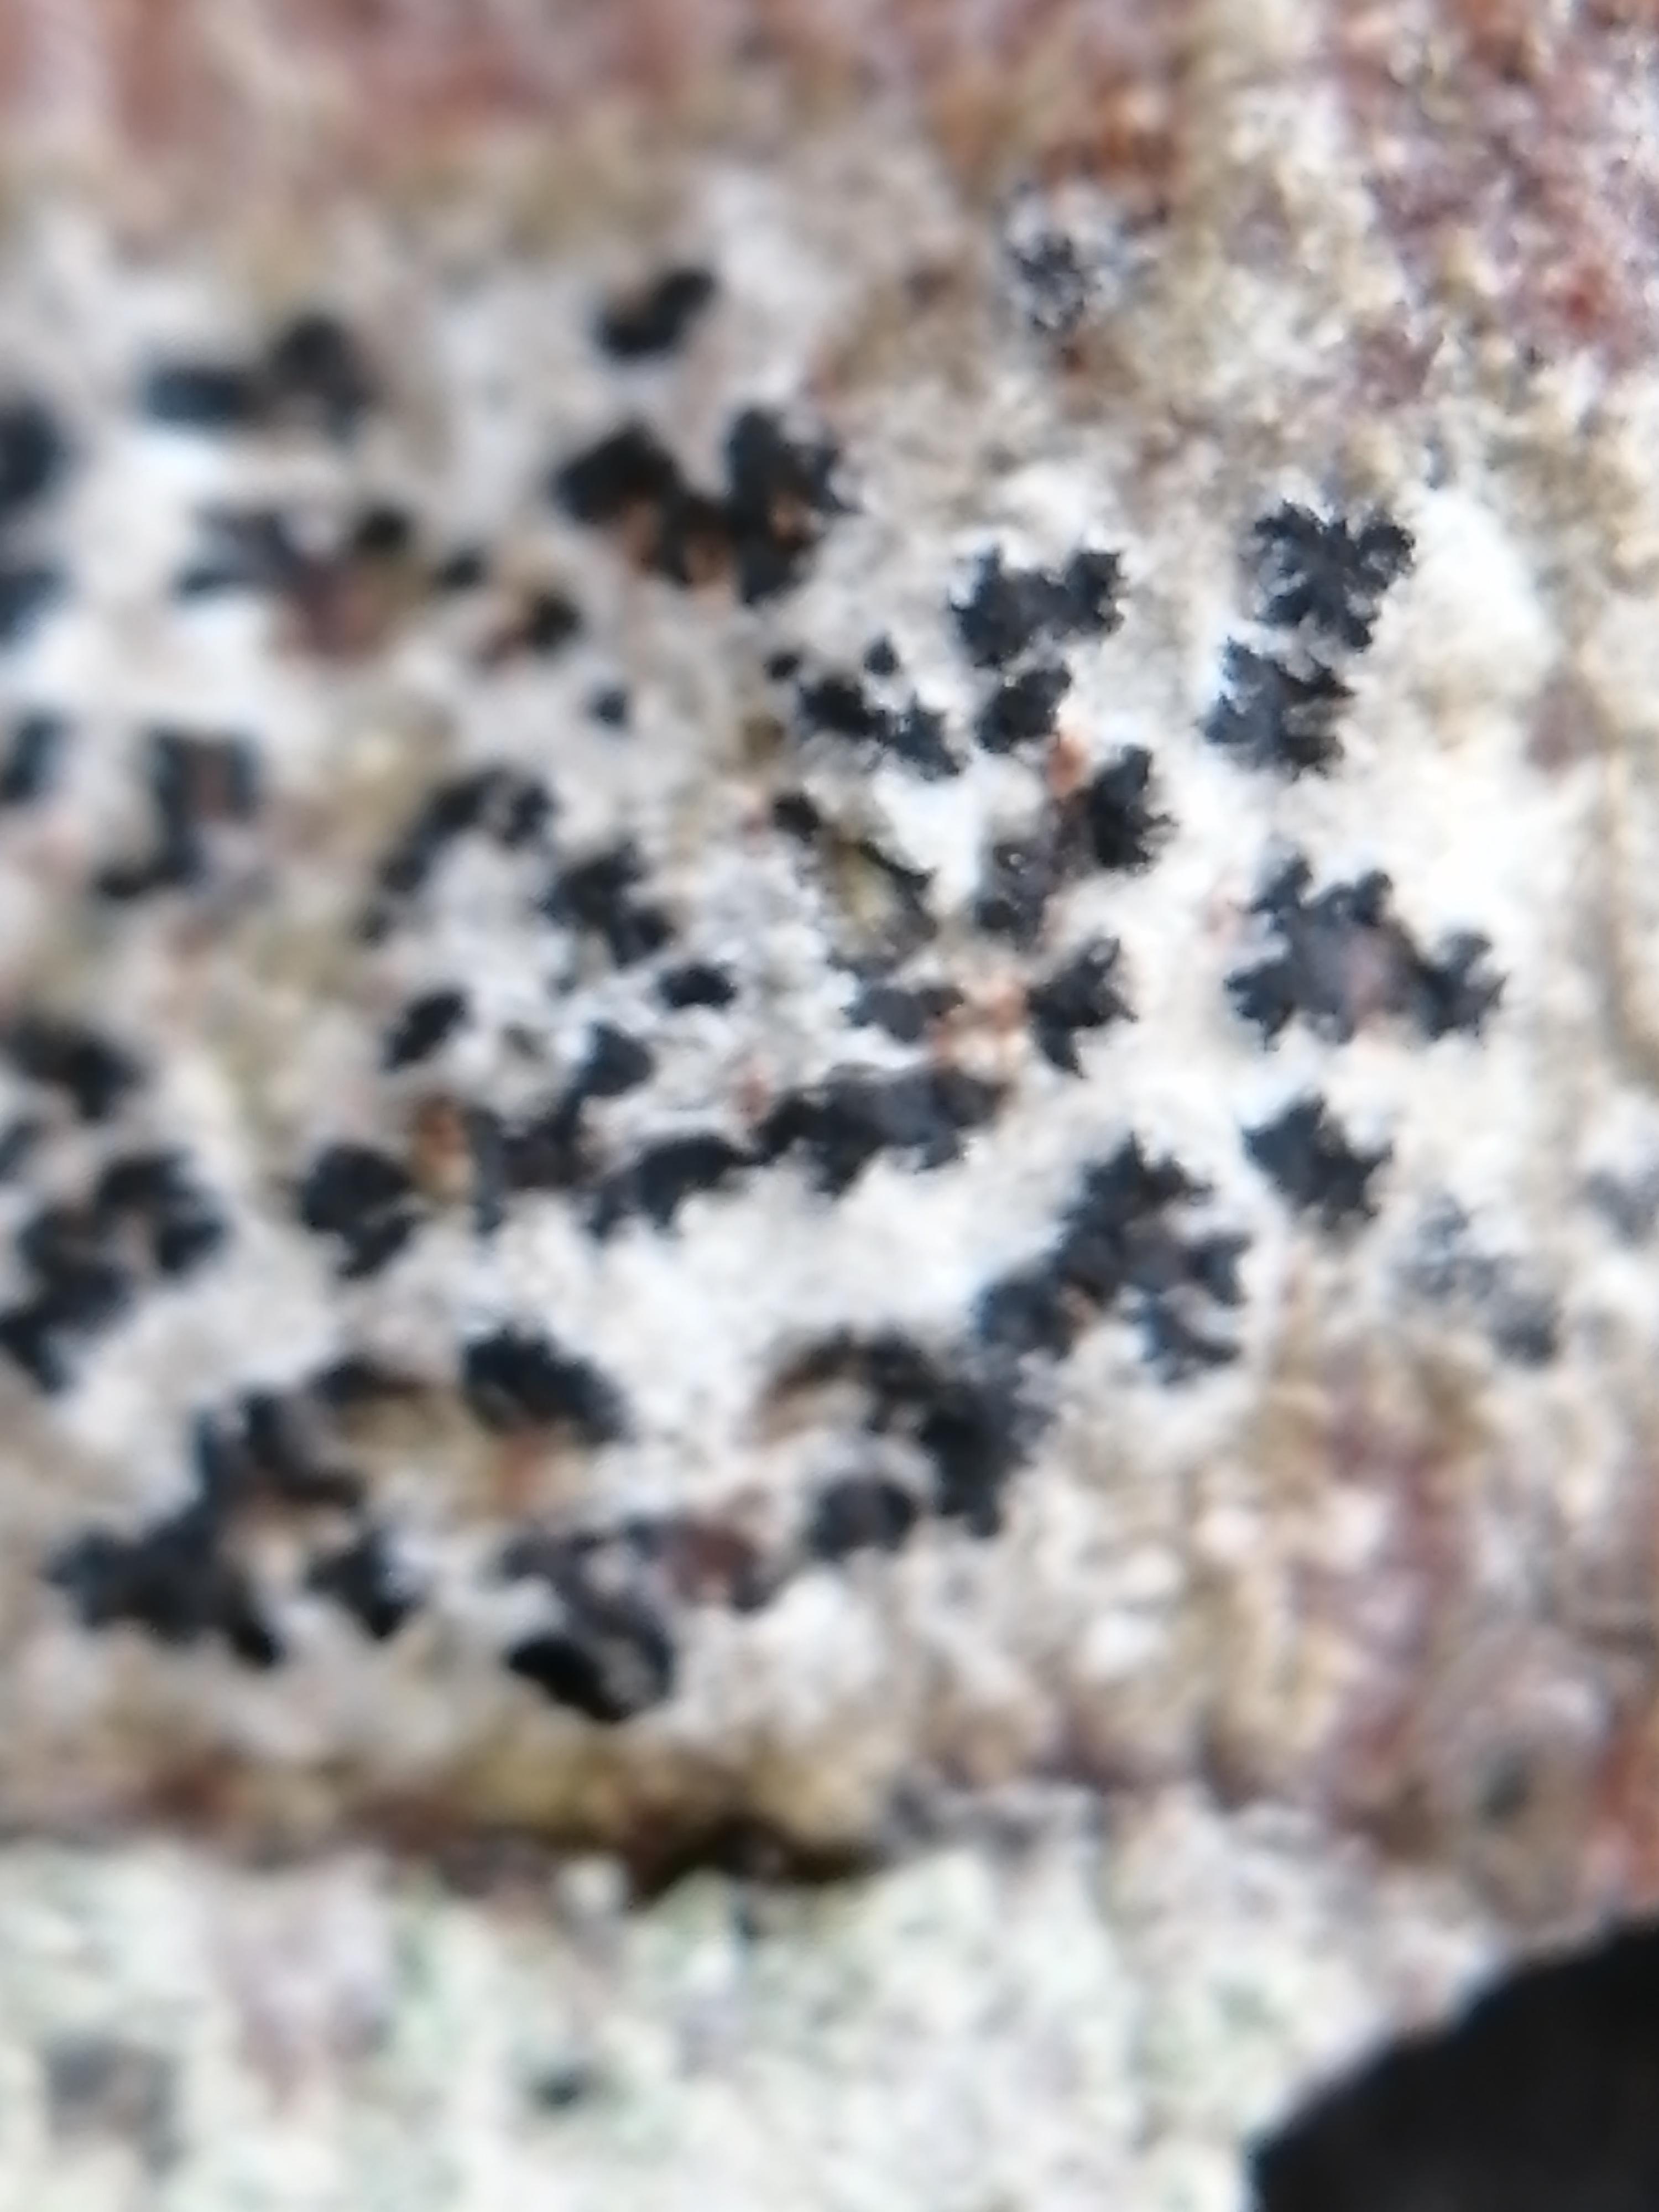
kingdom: Fungi
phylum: Ascomycota
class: Arthoniomycetes
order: Arthoniales
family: Arthoniaceae
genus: Arthonia
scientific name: Arthonia radiata
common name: stjerne-pletlav
